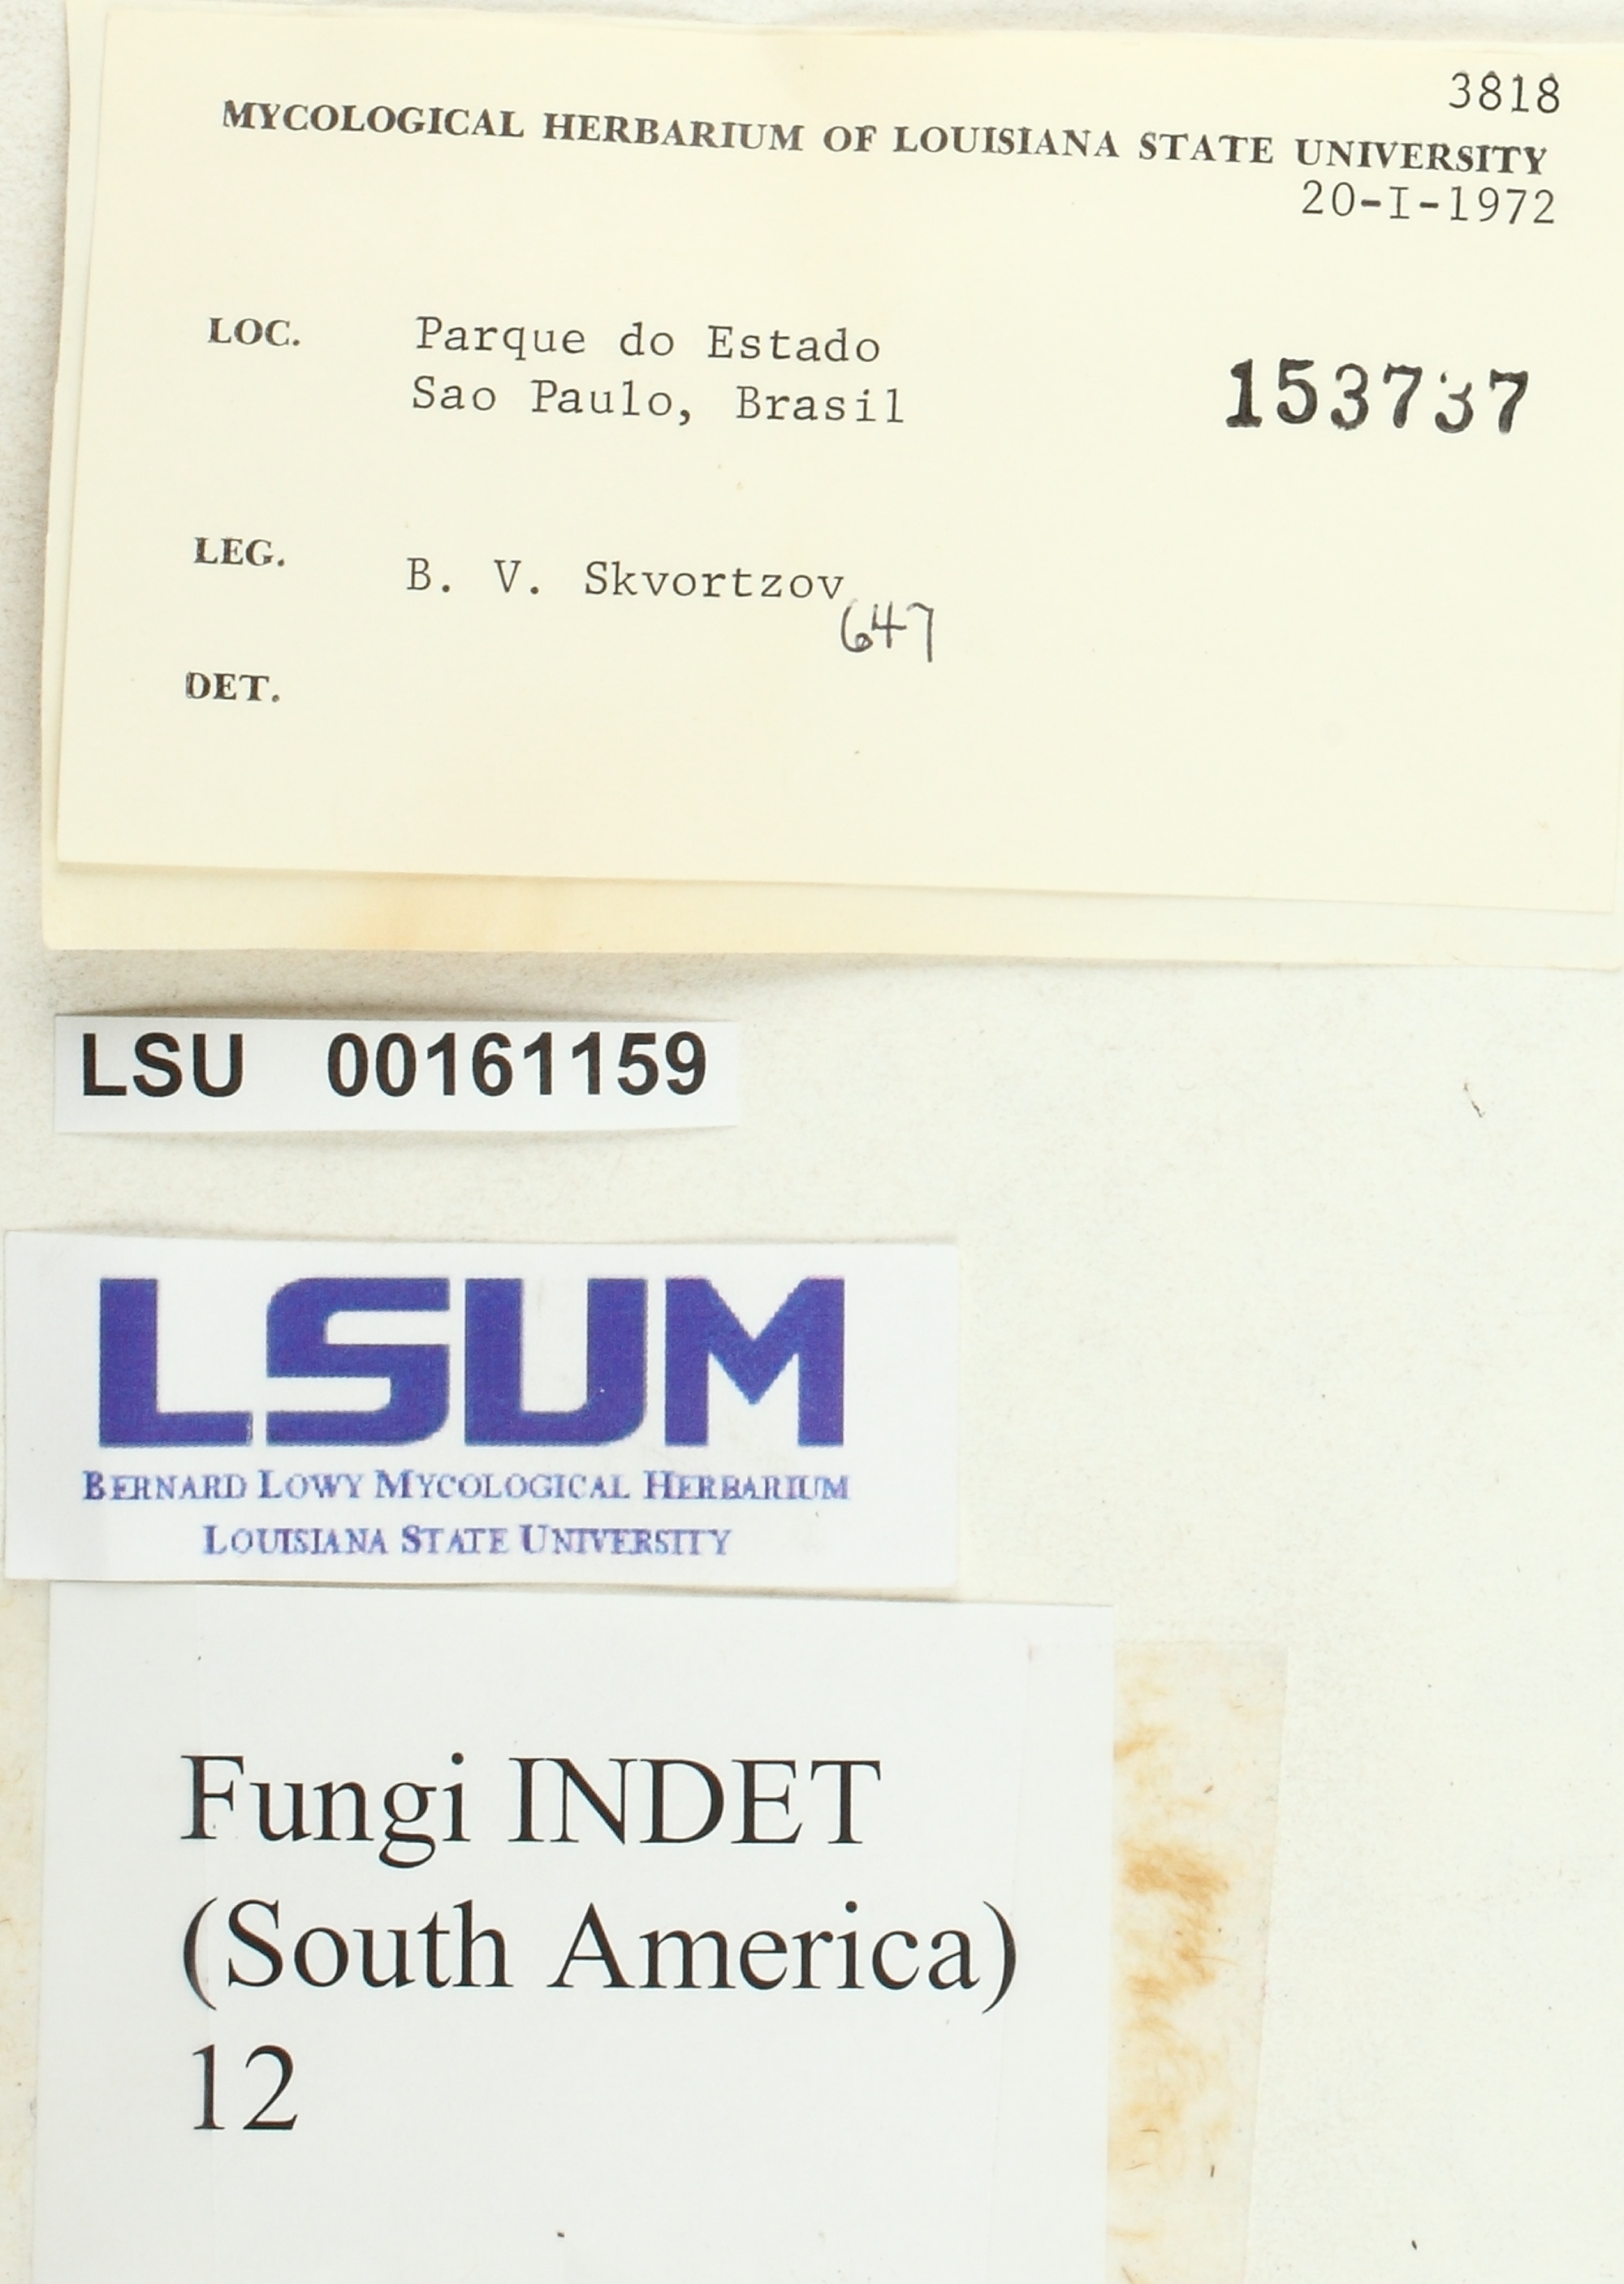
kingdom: Fungi
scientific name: Fungi
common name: Fungi
